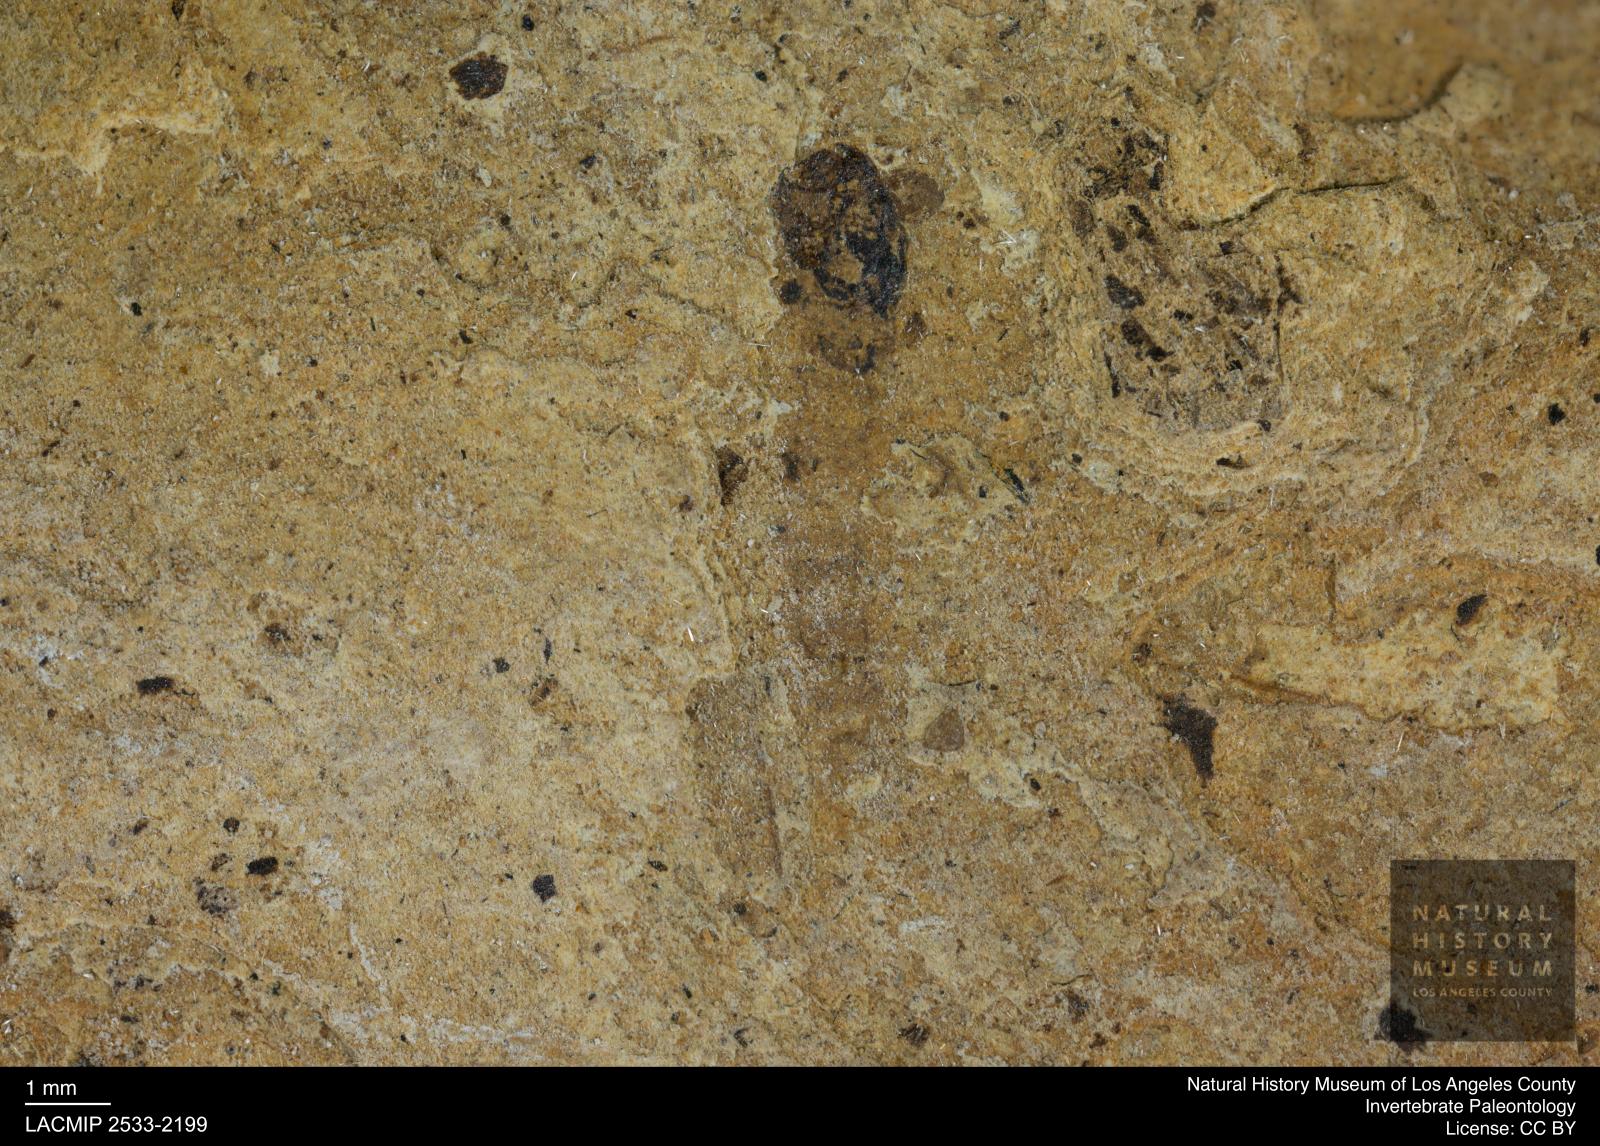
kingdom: Animalia
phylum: Arthropoda
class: Insecta
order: Diptera
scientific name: Diptera
